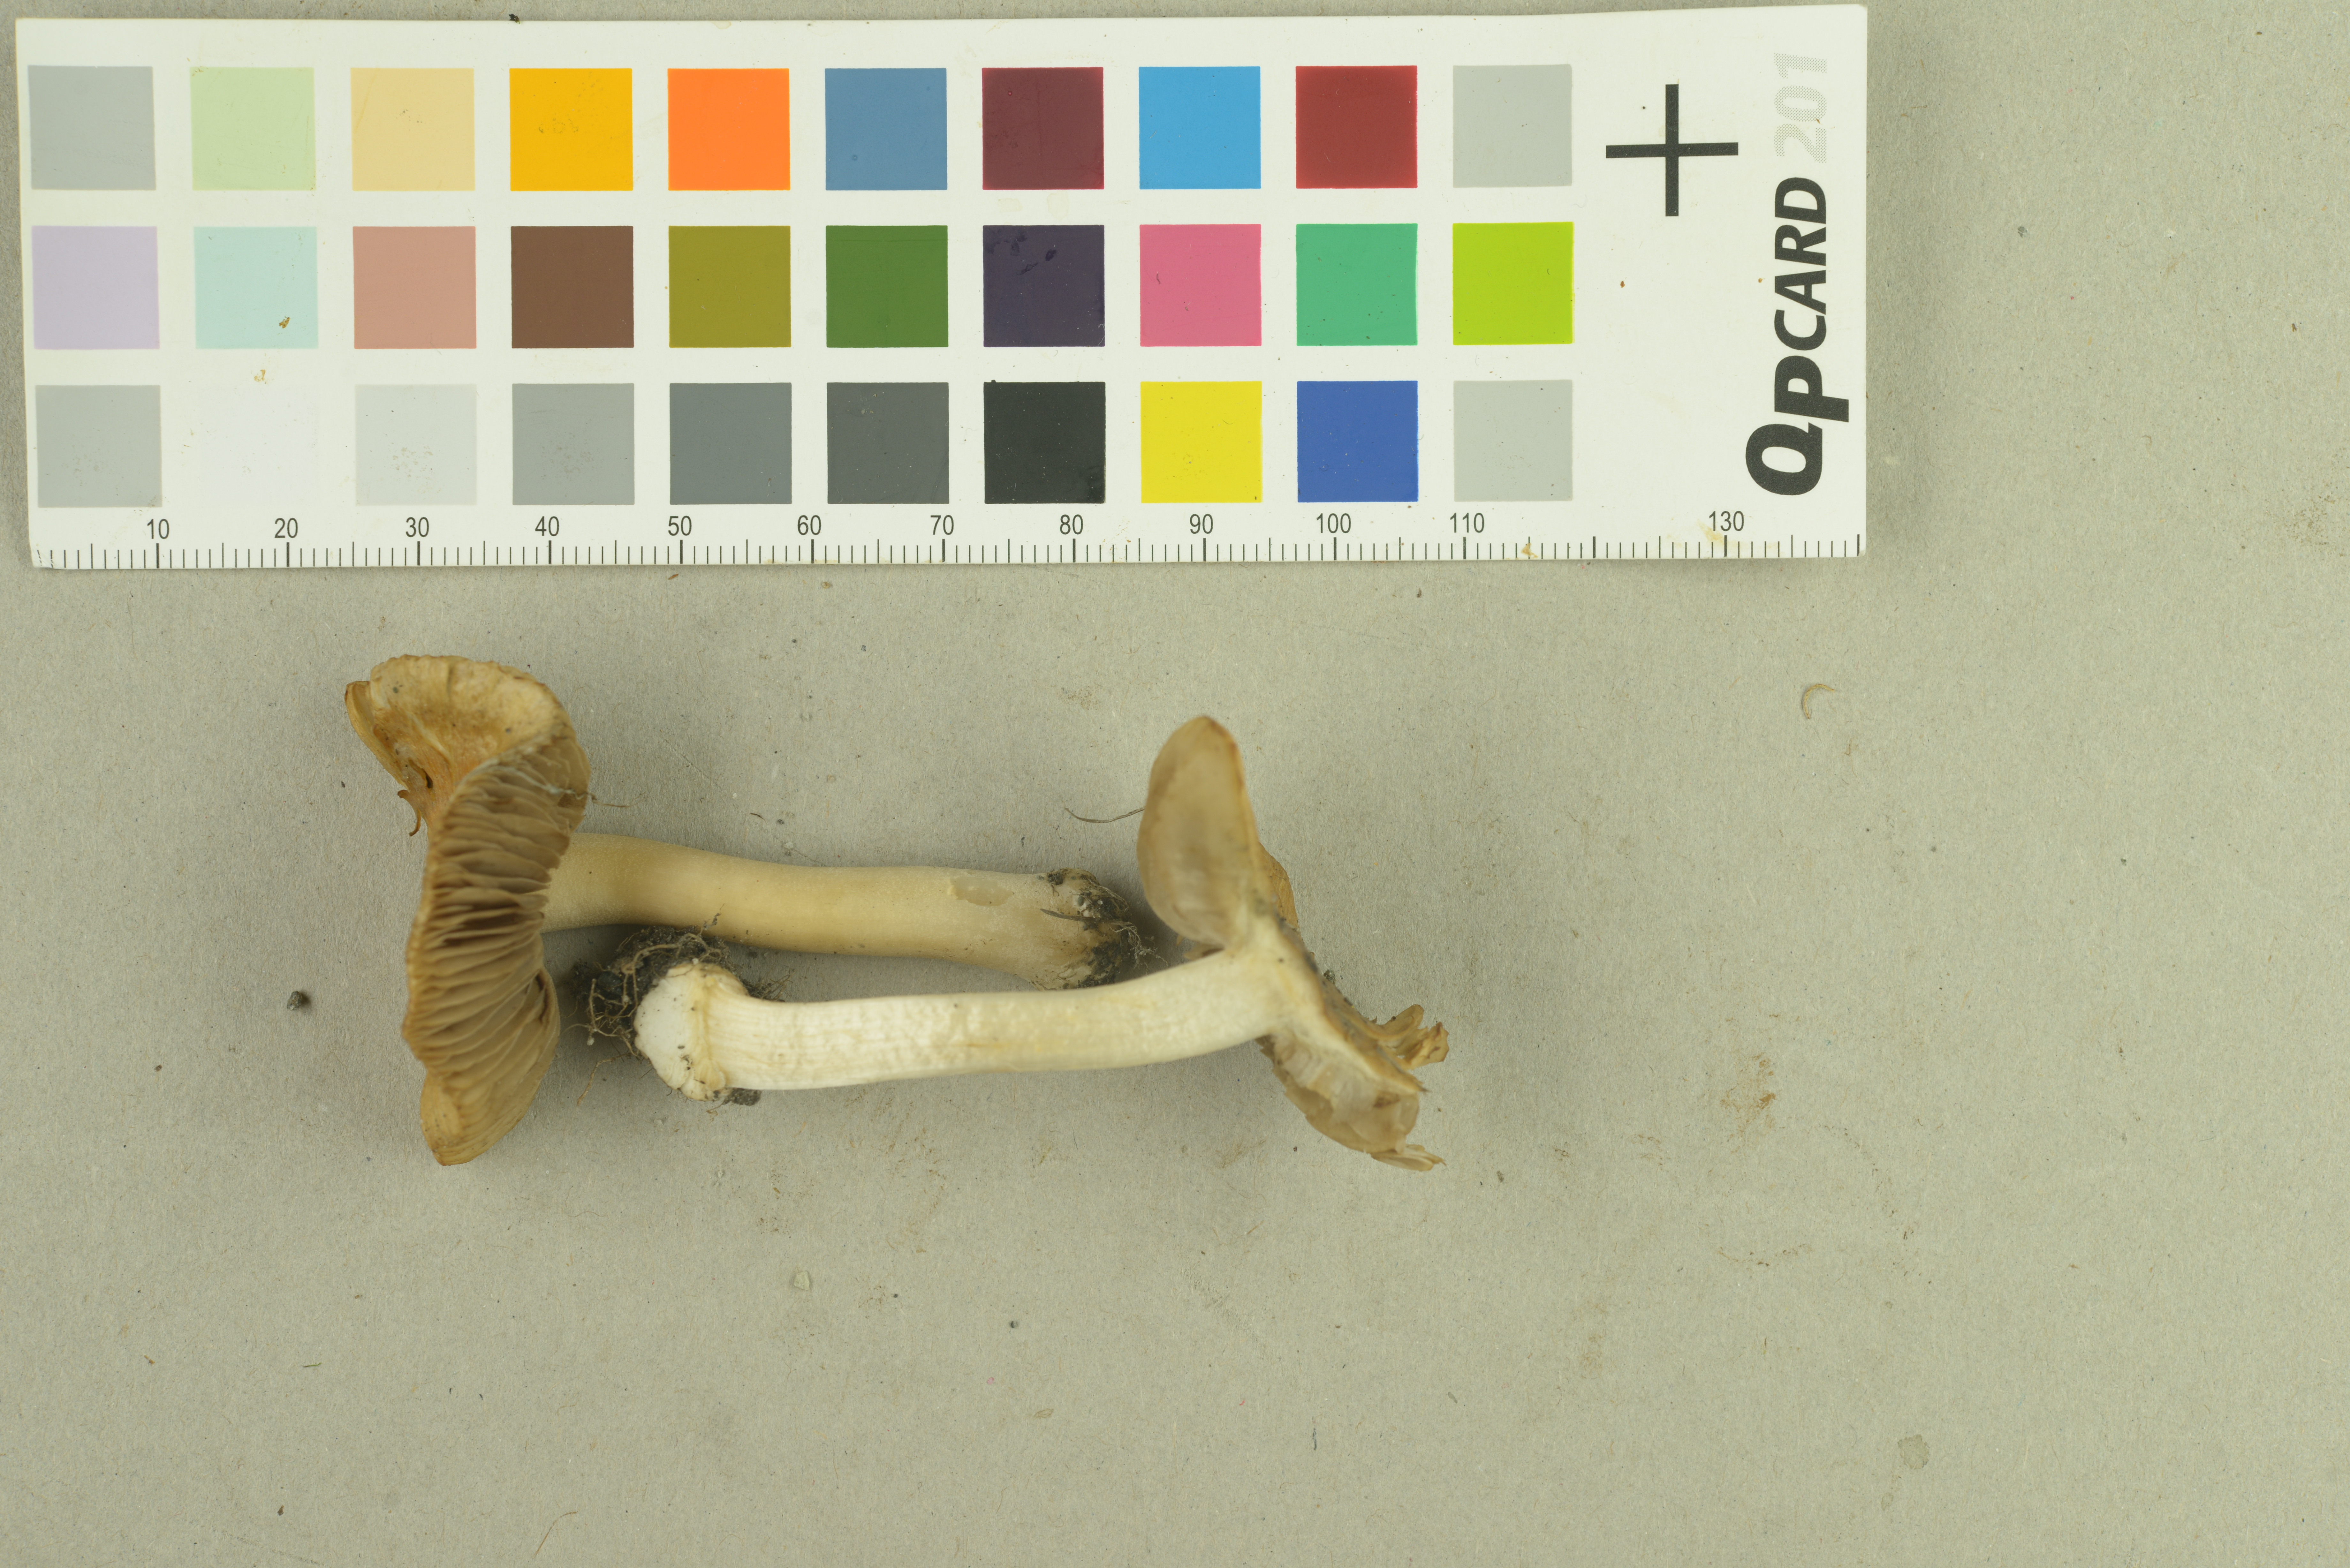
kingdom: Fungi
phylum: Basidiomycota
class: Agaricomycetes
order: Agaricales
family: Inocybaceae
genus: Inocybe
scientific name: Inocybe ceskae
